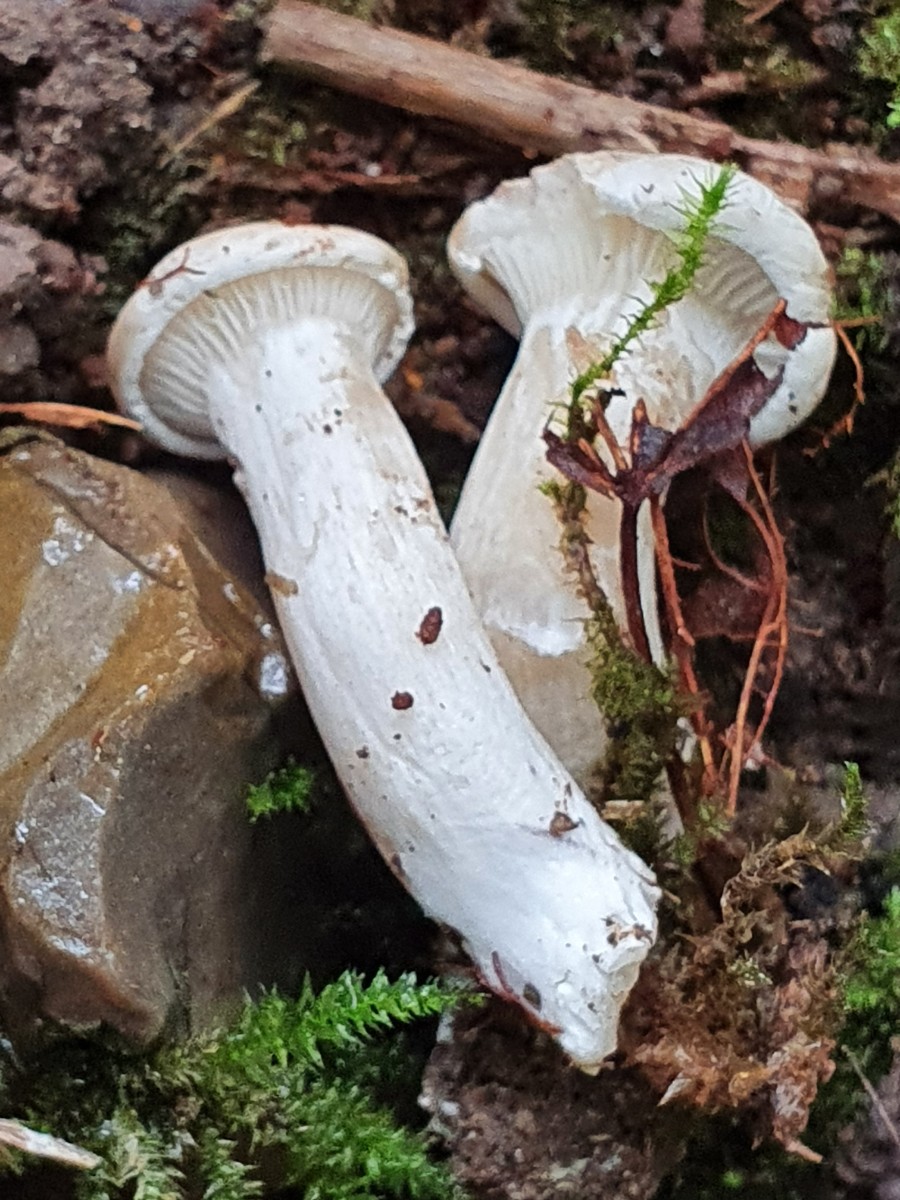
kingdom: Fungi
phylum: Basidiomycota
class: Agaricomycetes
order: Agaricales
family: Entolomataceae
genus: Clitopilus
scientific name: Clitopilus prunulus
